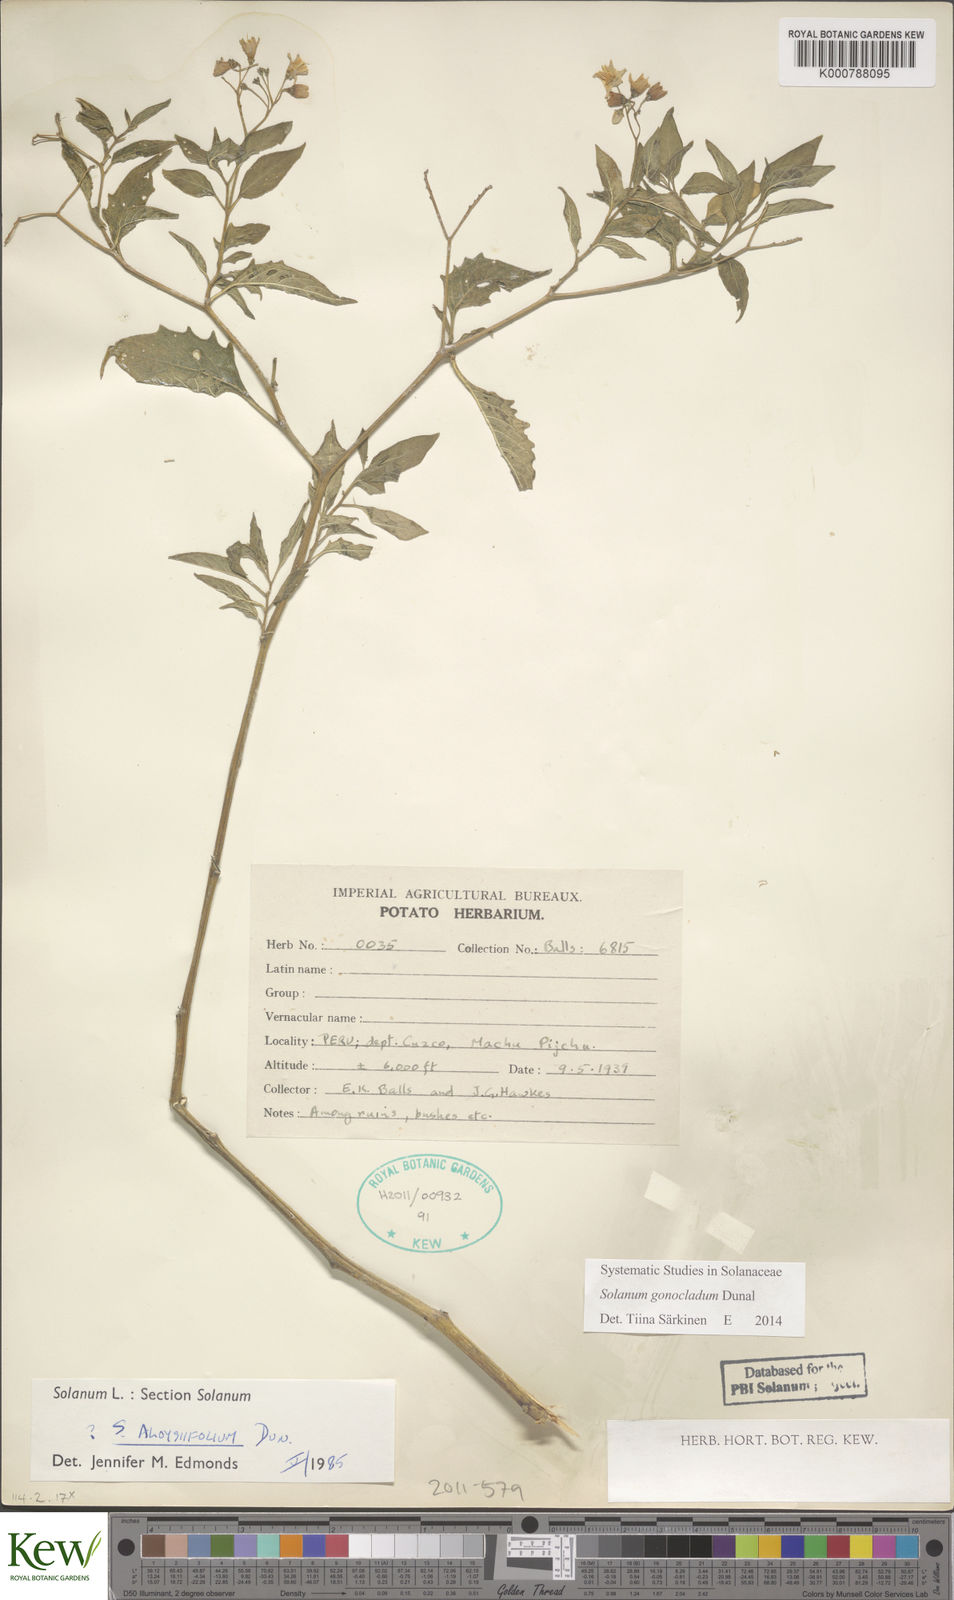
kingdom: Plantae
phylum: Tracheophyta
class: Magnoliopsida
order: Solanales
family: Solanaceae
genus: Solanum
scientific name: Solanum gonocladum
